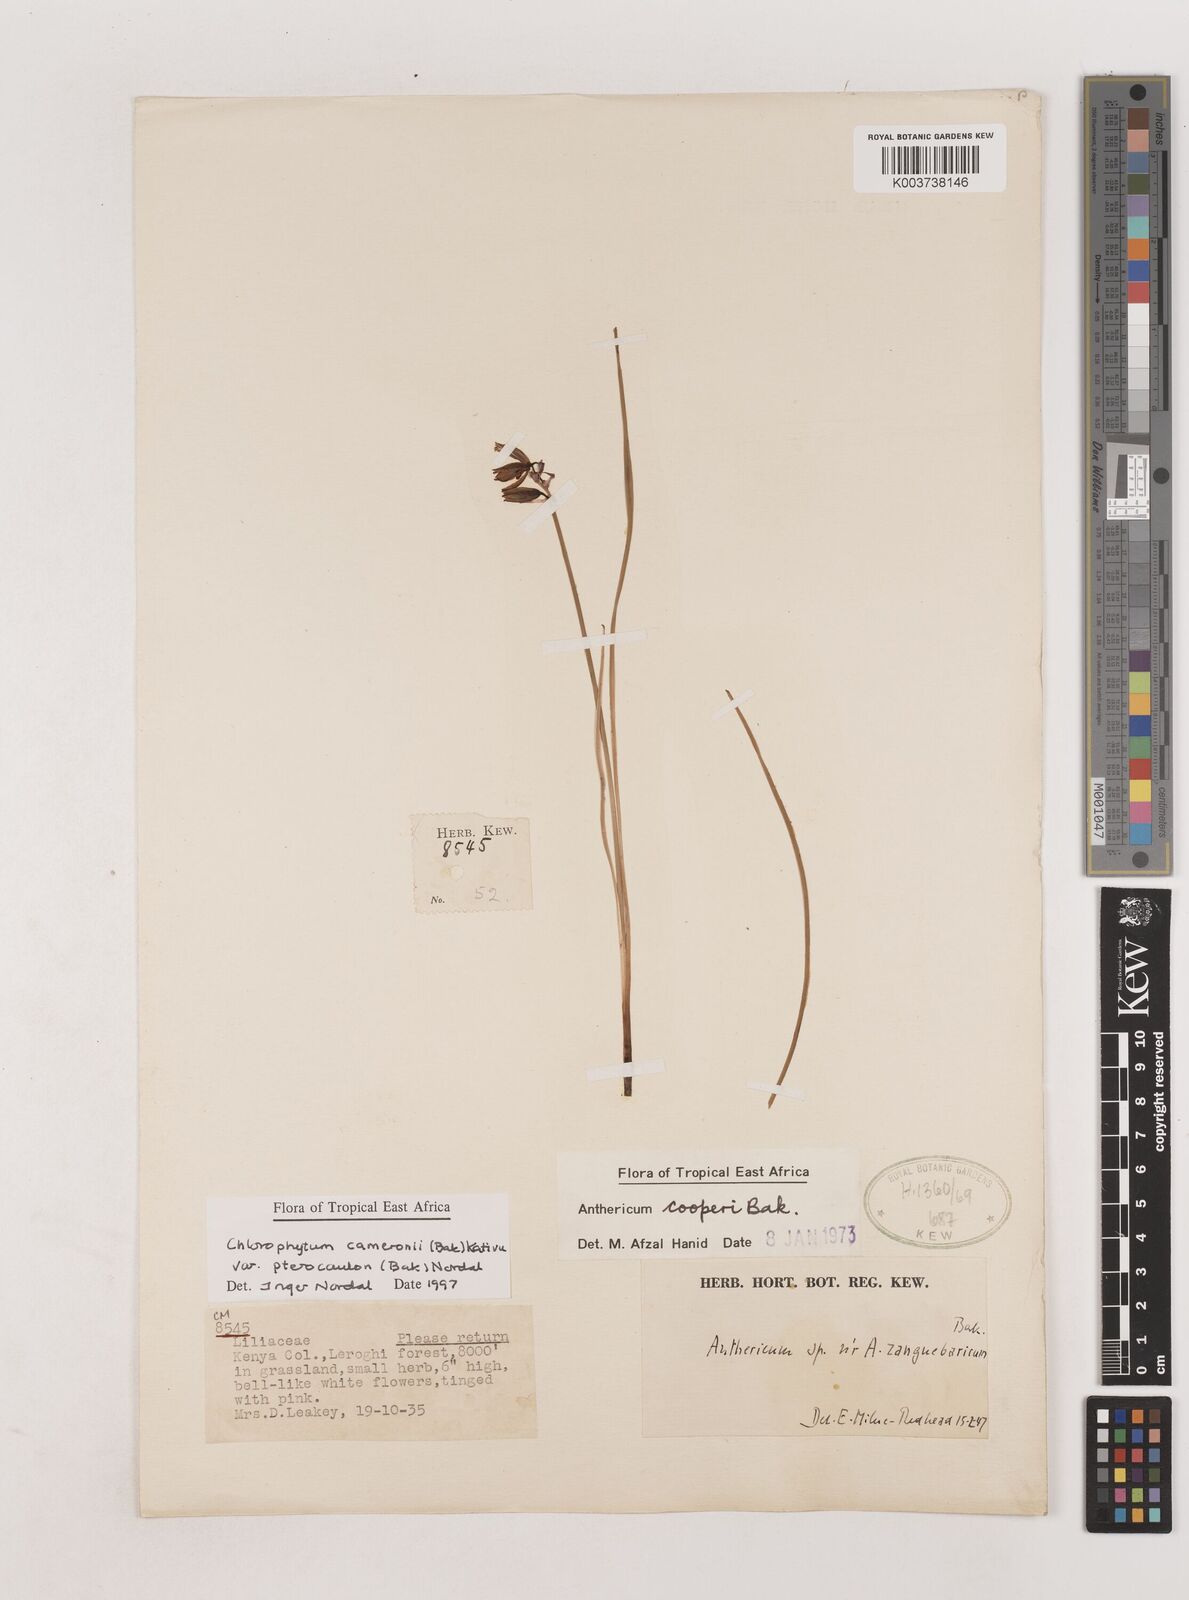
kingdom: Plantae
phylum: Tracheophyta
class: Liliopsida
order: Asparagales
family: Asparagaceae
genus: Chlorophytum
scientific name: Chlorophytum cameronii
